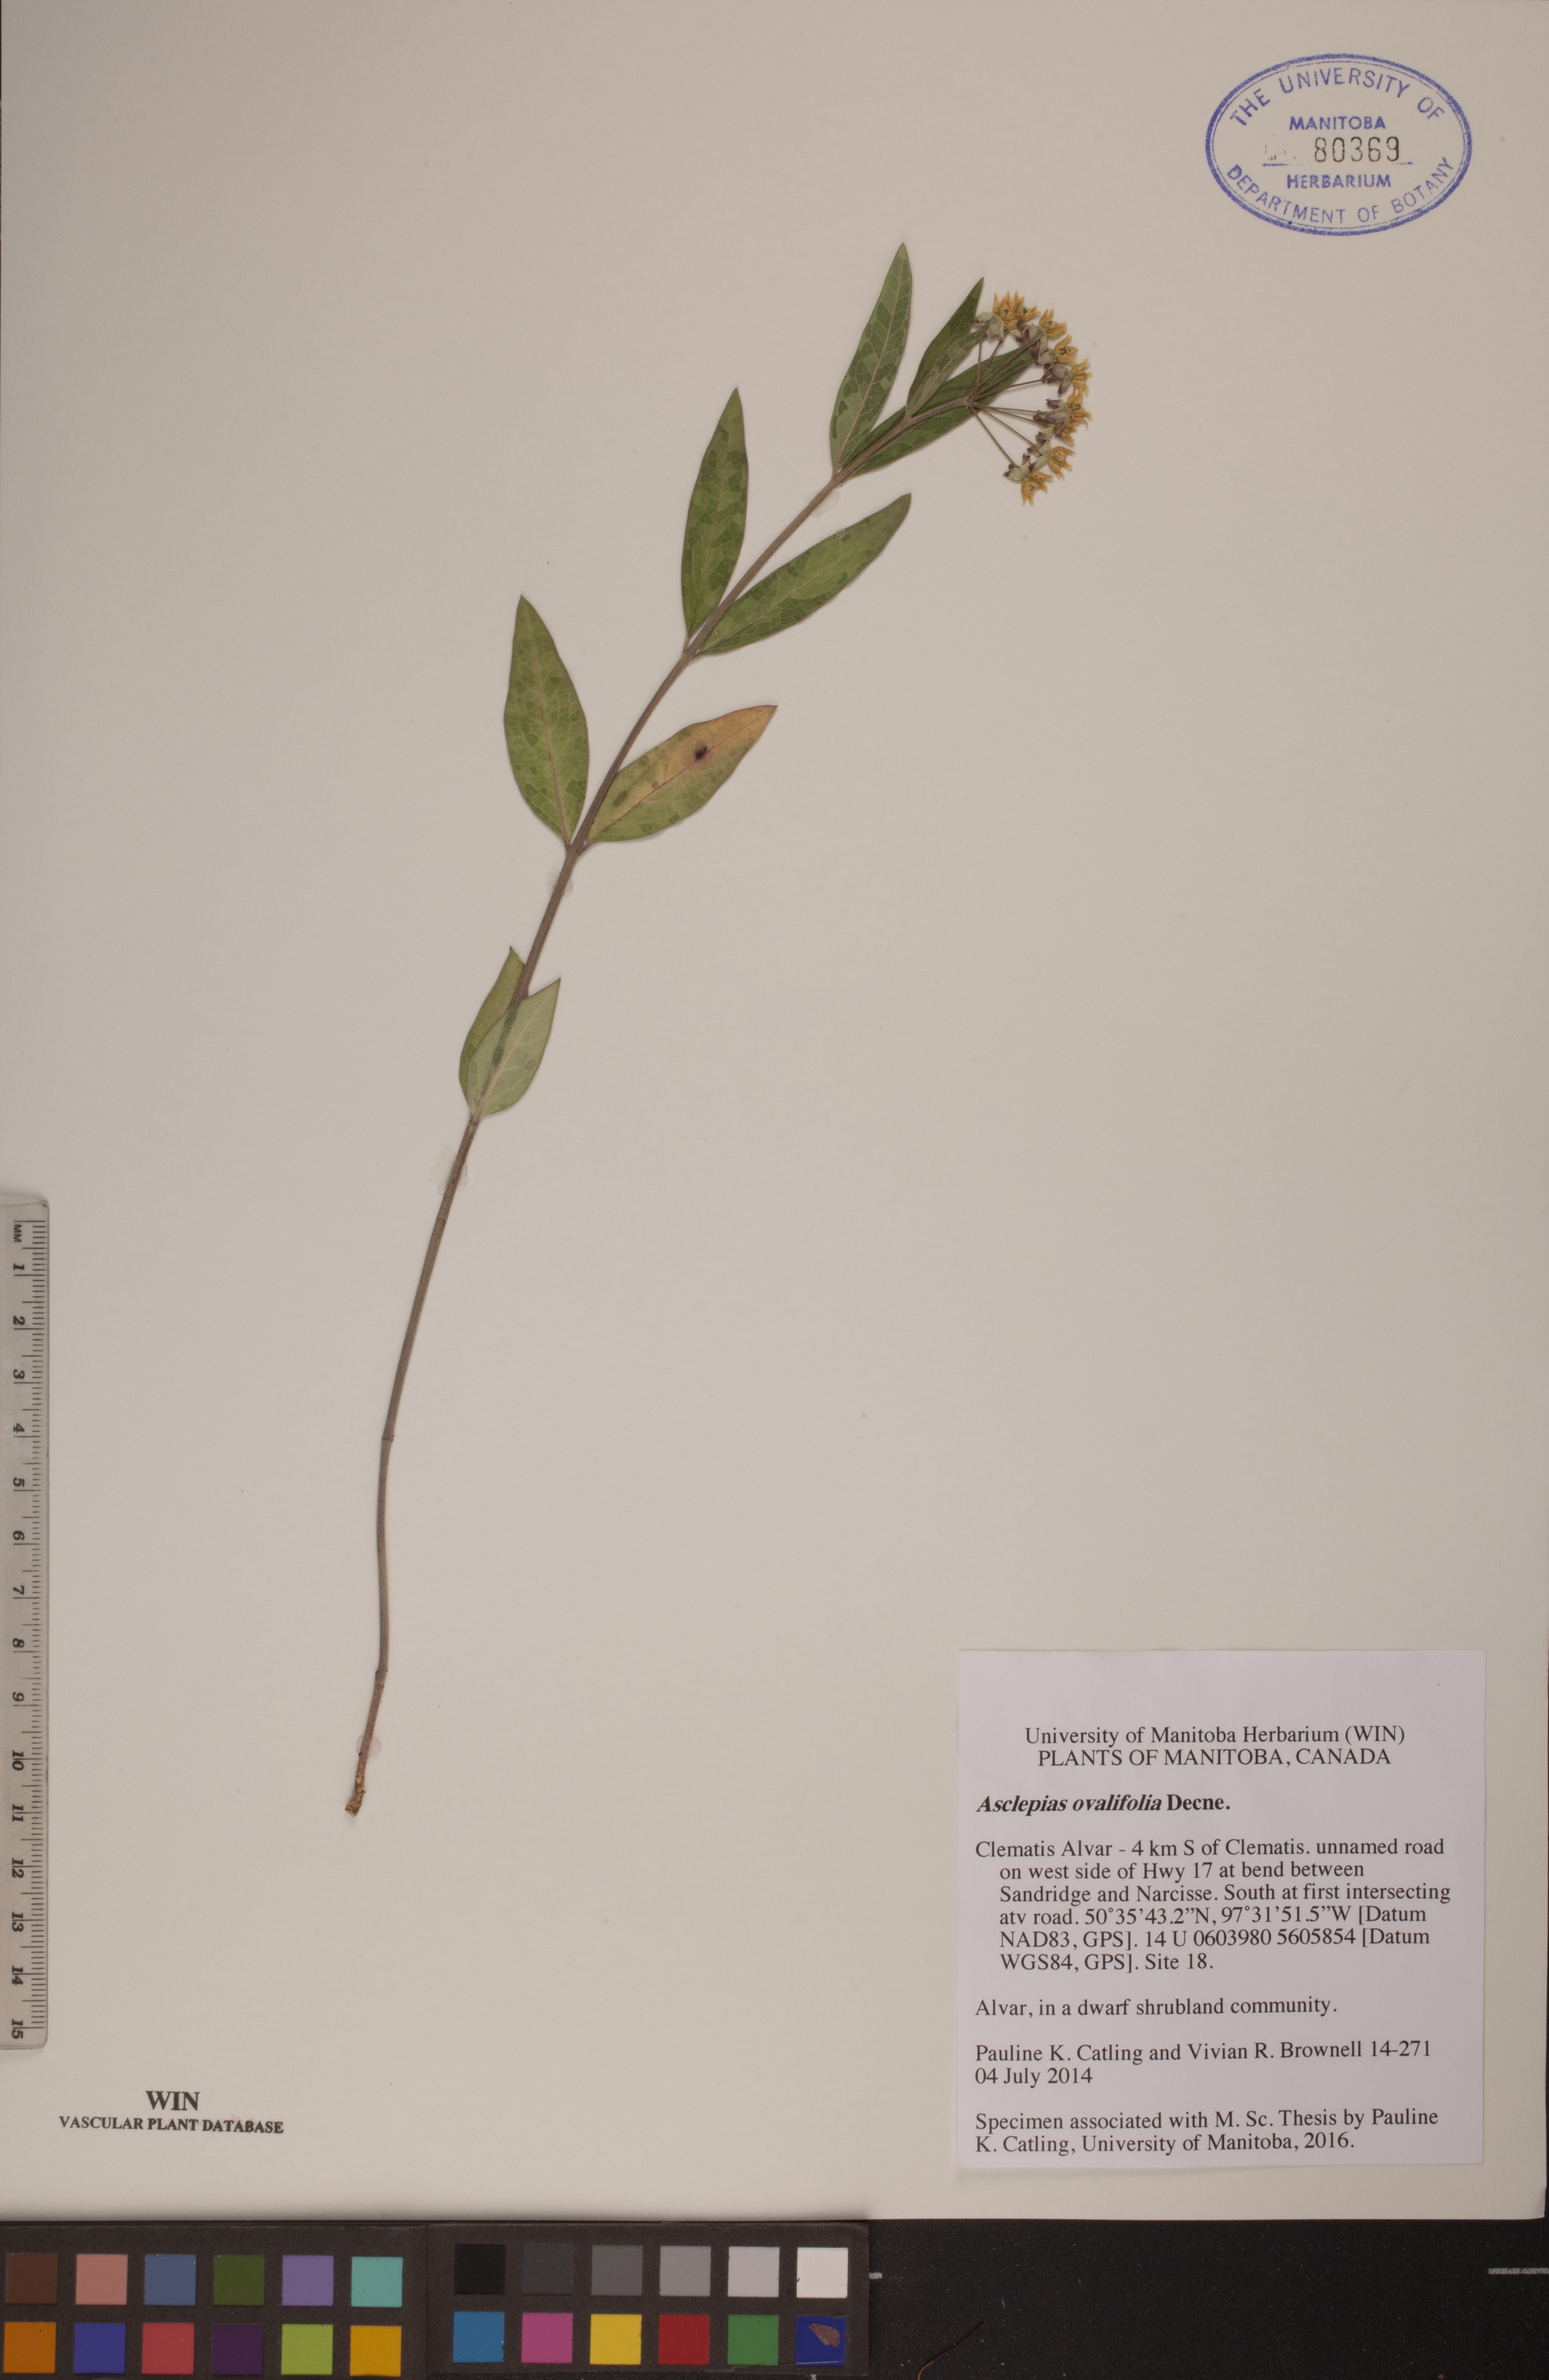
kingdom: Plantae
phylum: Tracheophyta
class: Magnoliopsida
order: Gentianales
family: Apocynaceae
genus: Asclepias
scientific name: Asclepias ovalifolia
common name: Dwarf milkweed
